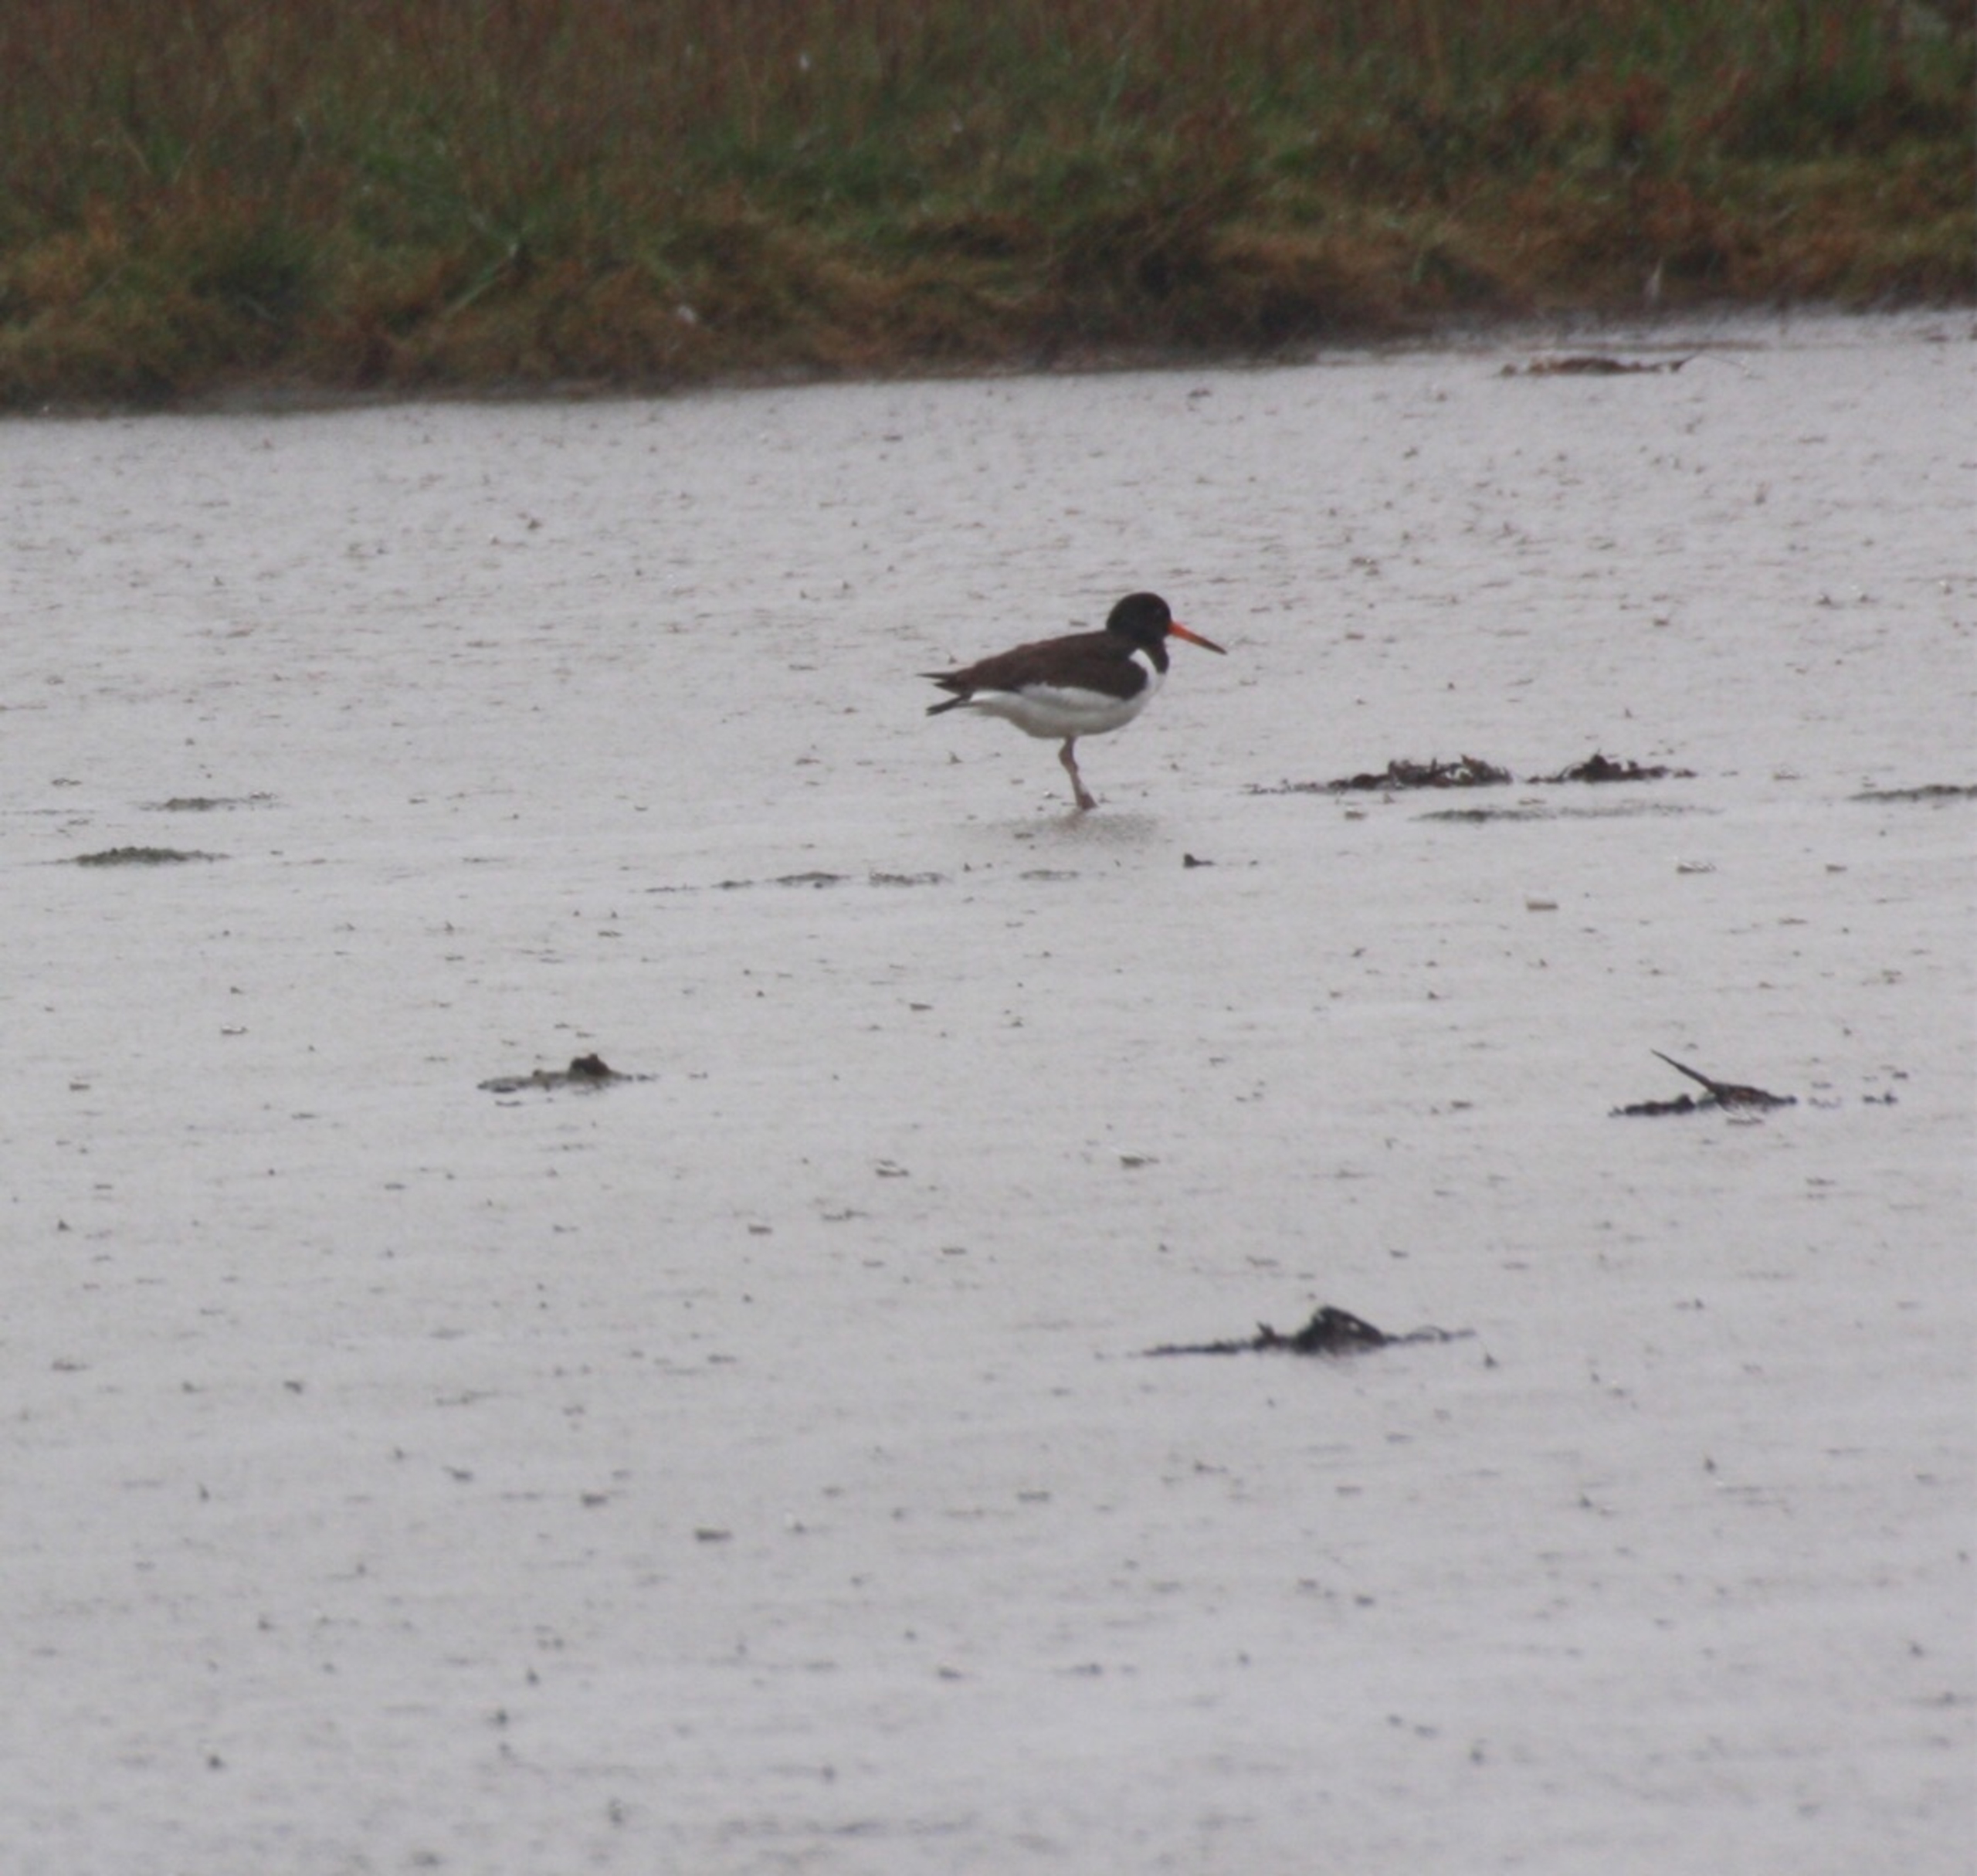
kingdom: Animalia
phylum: Chordata
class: Aves
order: Charadriiformes
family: Haematopodidae
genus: Haematopus
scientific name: Haematopus ostralegus
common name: Strandskade
